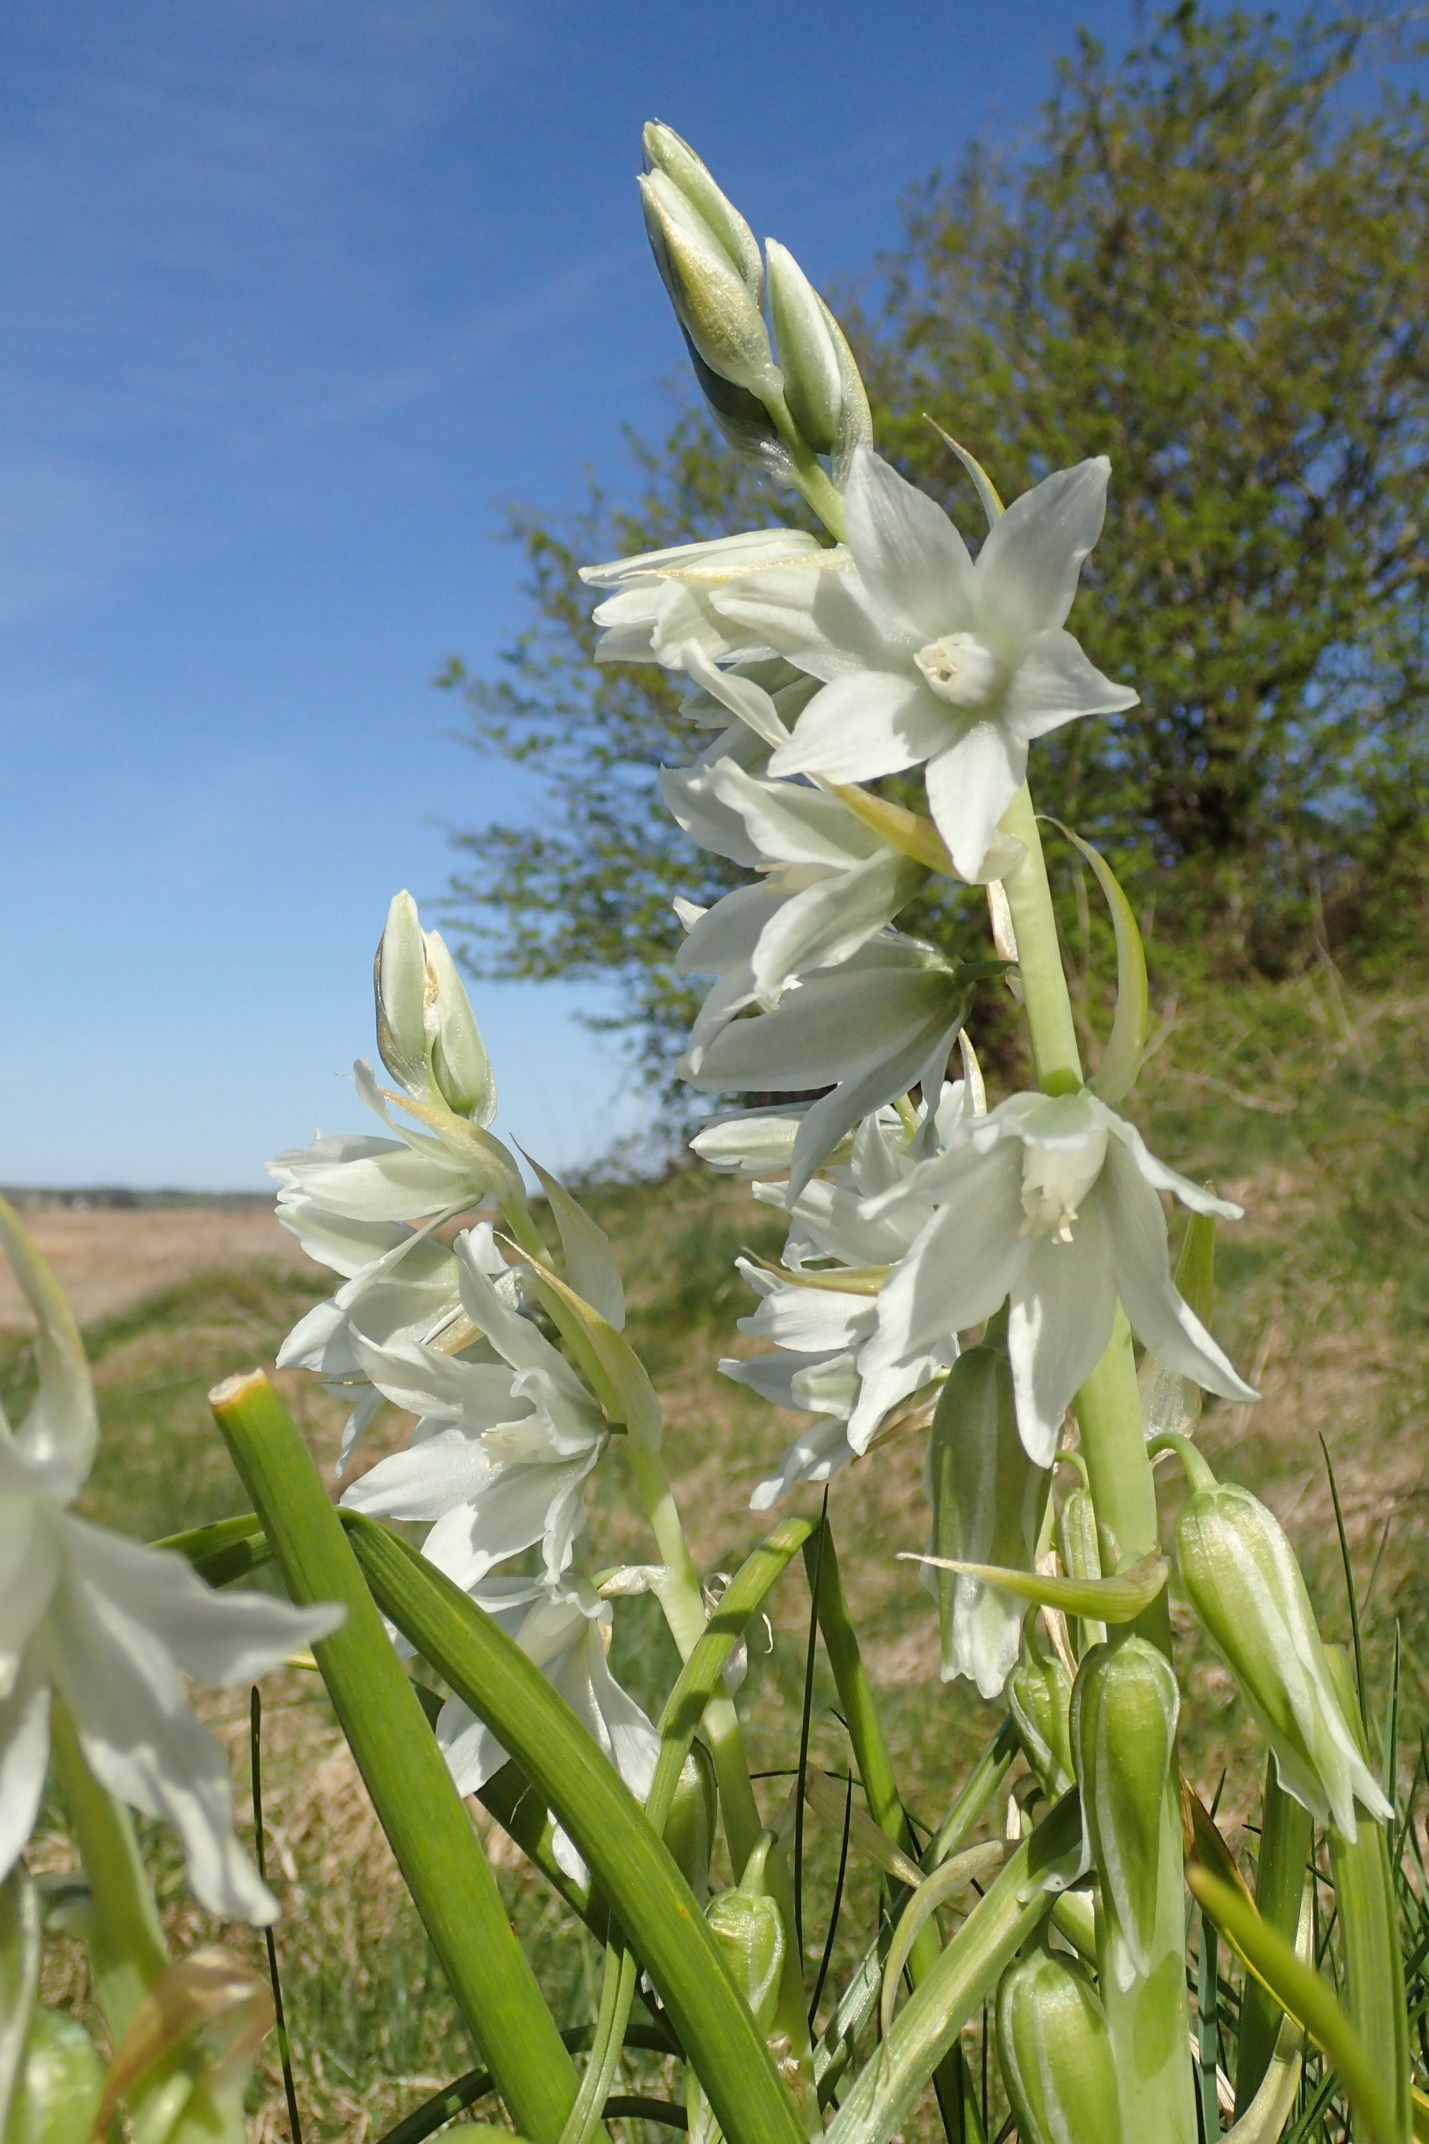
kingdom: Plantae
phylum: Tracheophyta
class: Liliopsida
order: Asparagales
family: Asparagaceae
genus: Ornithogalum
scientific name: Ornithogalum nutans
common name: Nikkende fuglemælk
